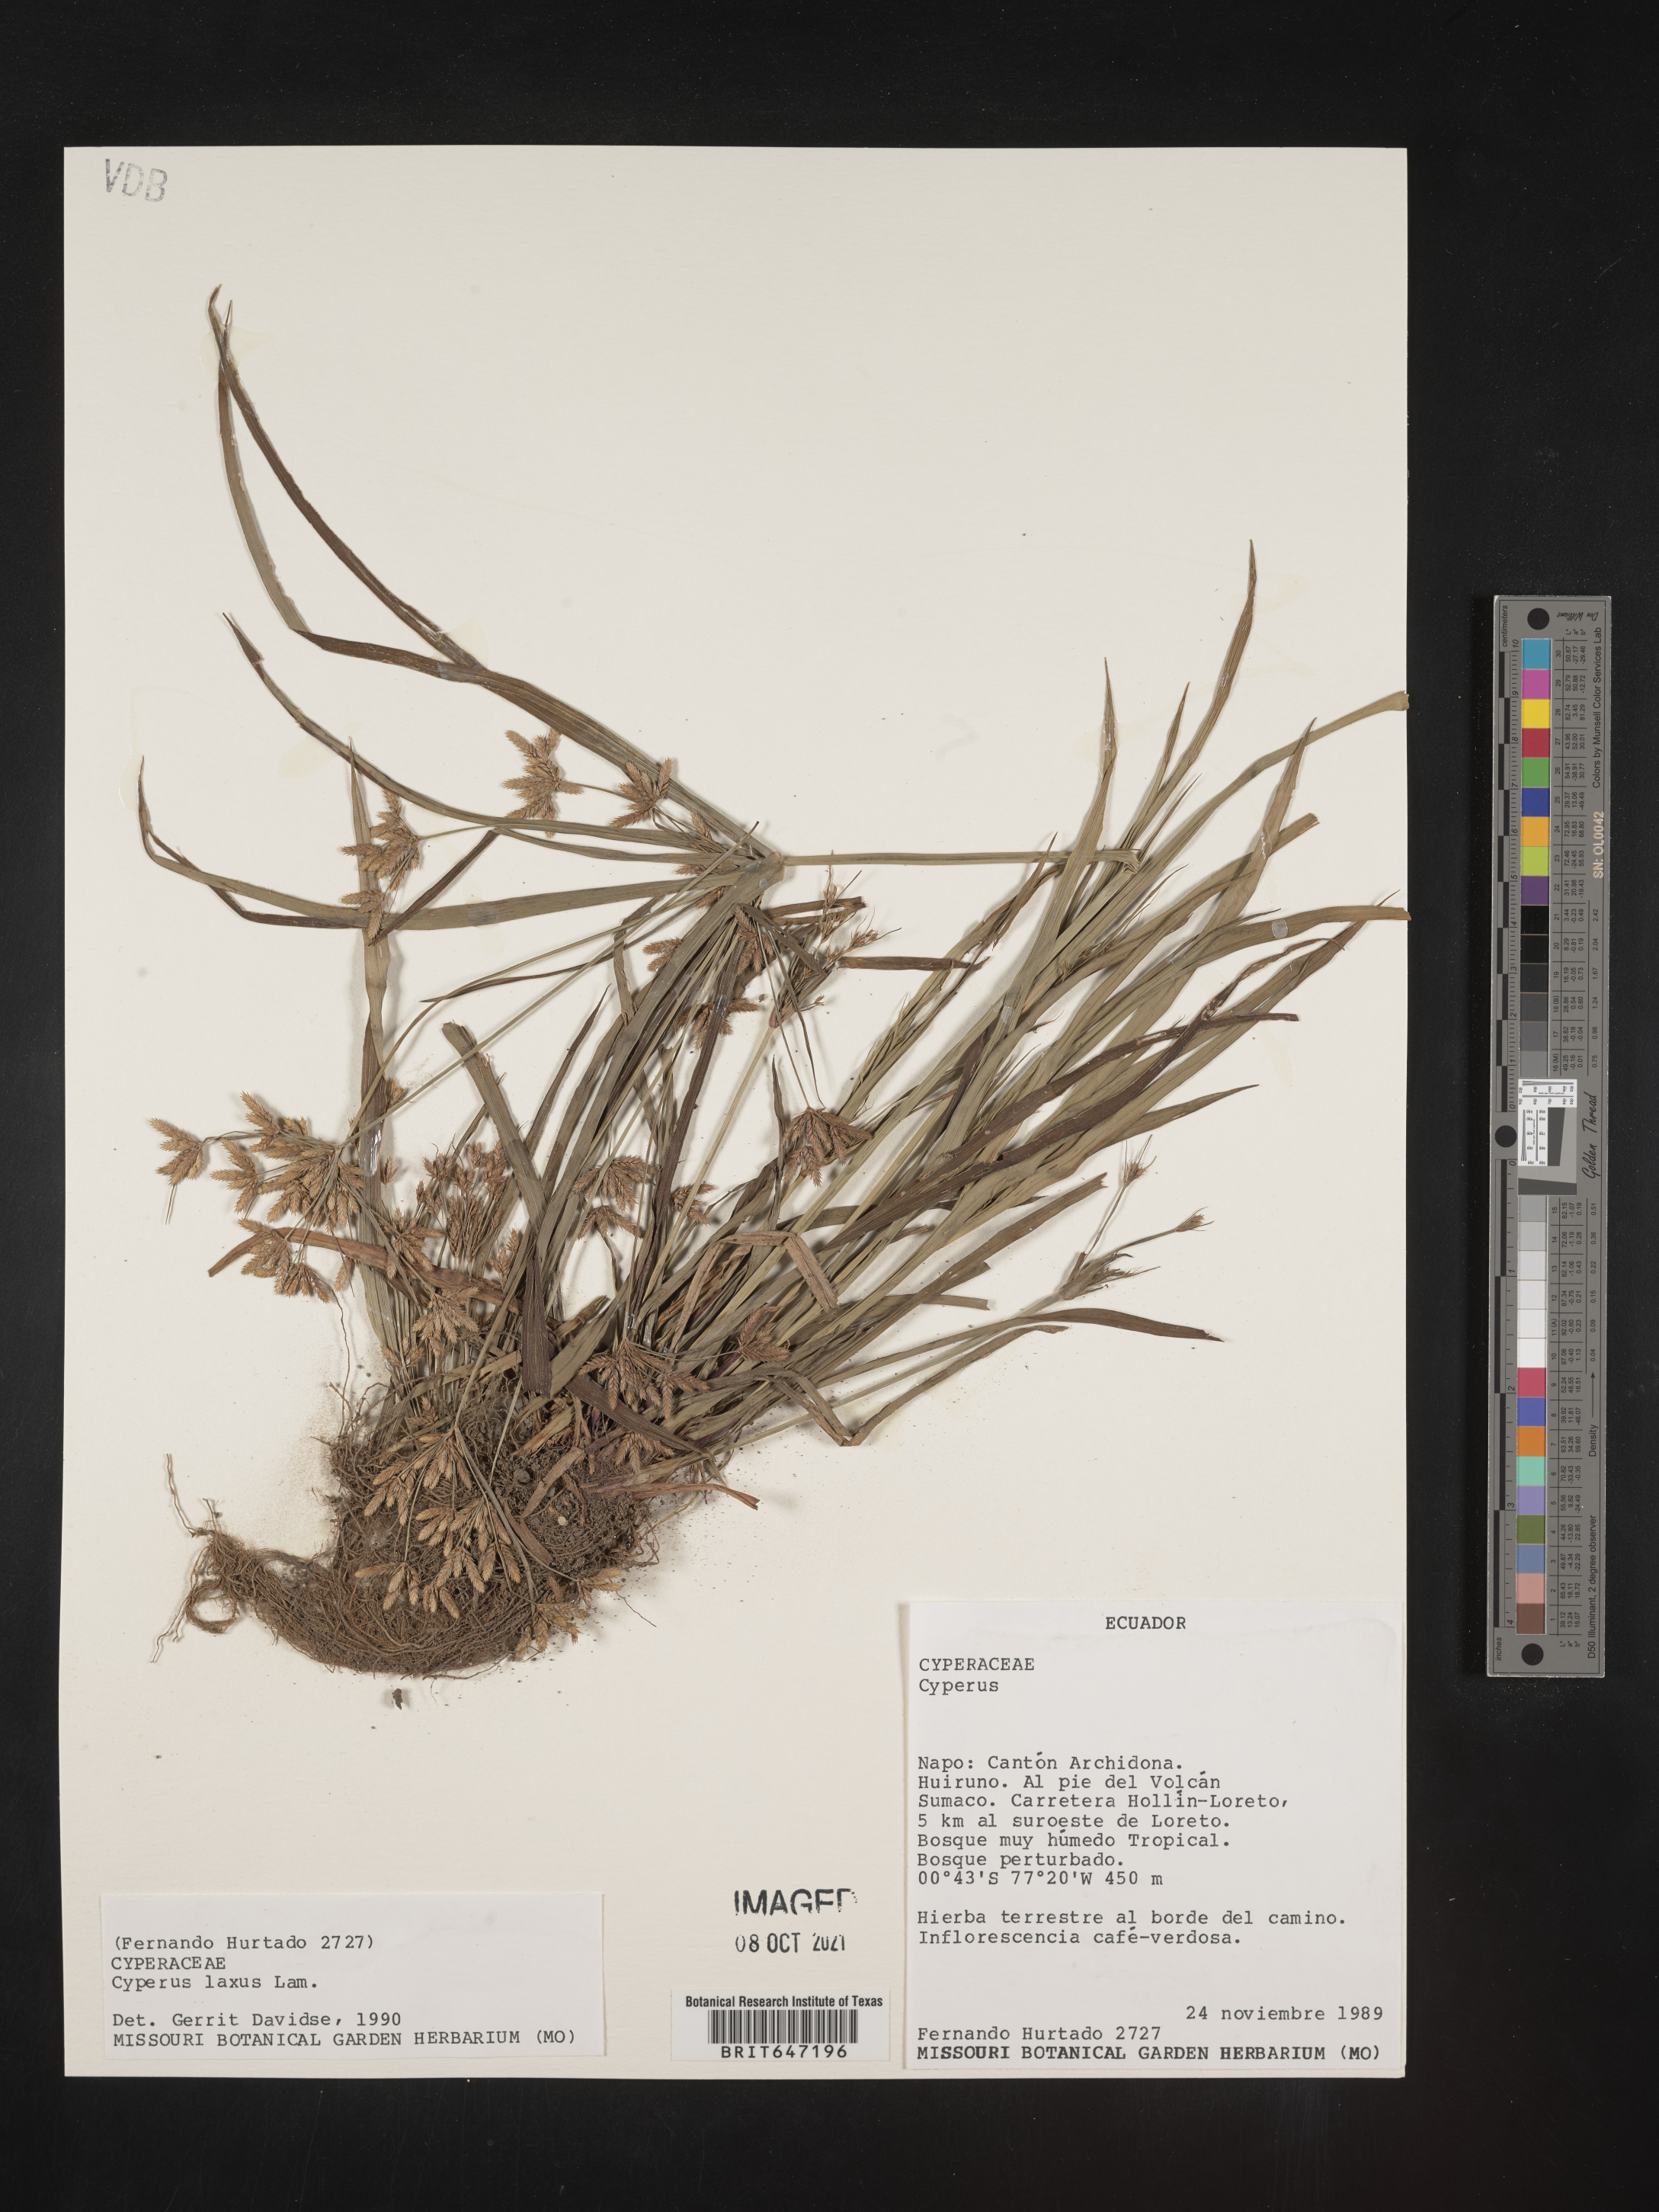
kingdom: Plantae
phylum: Tracheophyta
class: Liliopsida
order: Poales
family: Cyperaceae
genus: Cyperus
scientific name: Cyperus laxus
